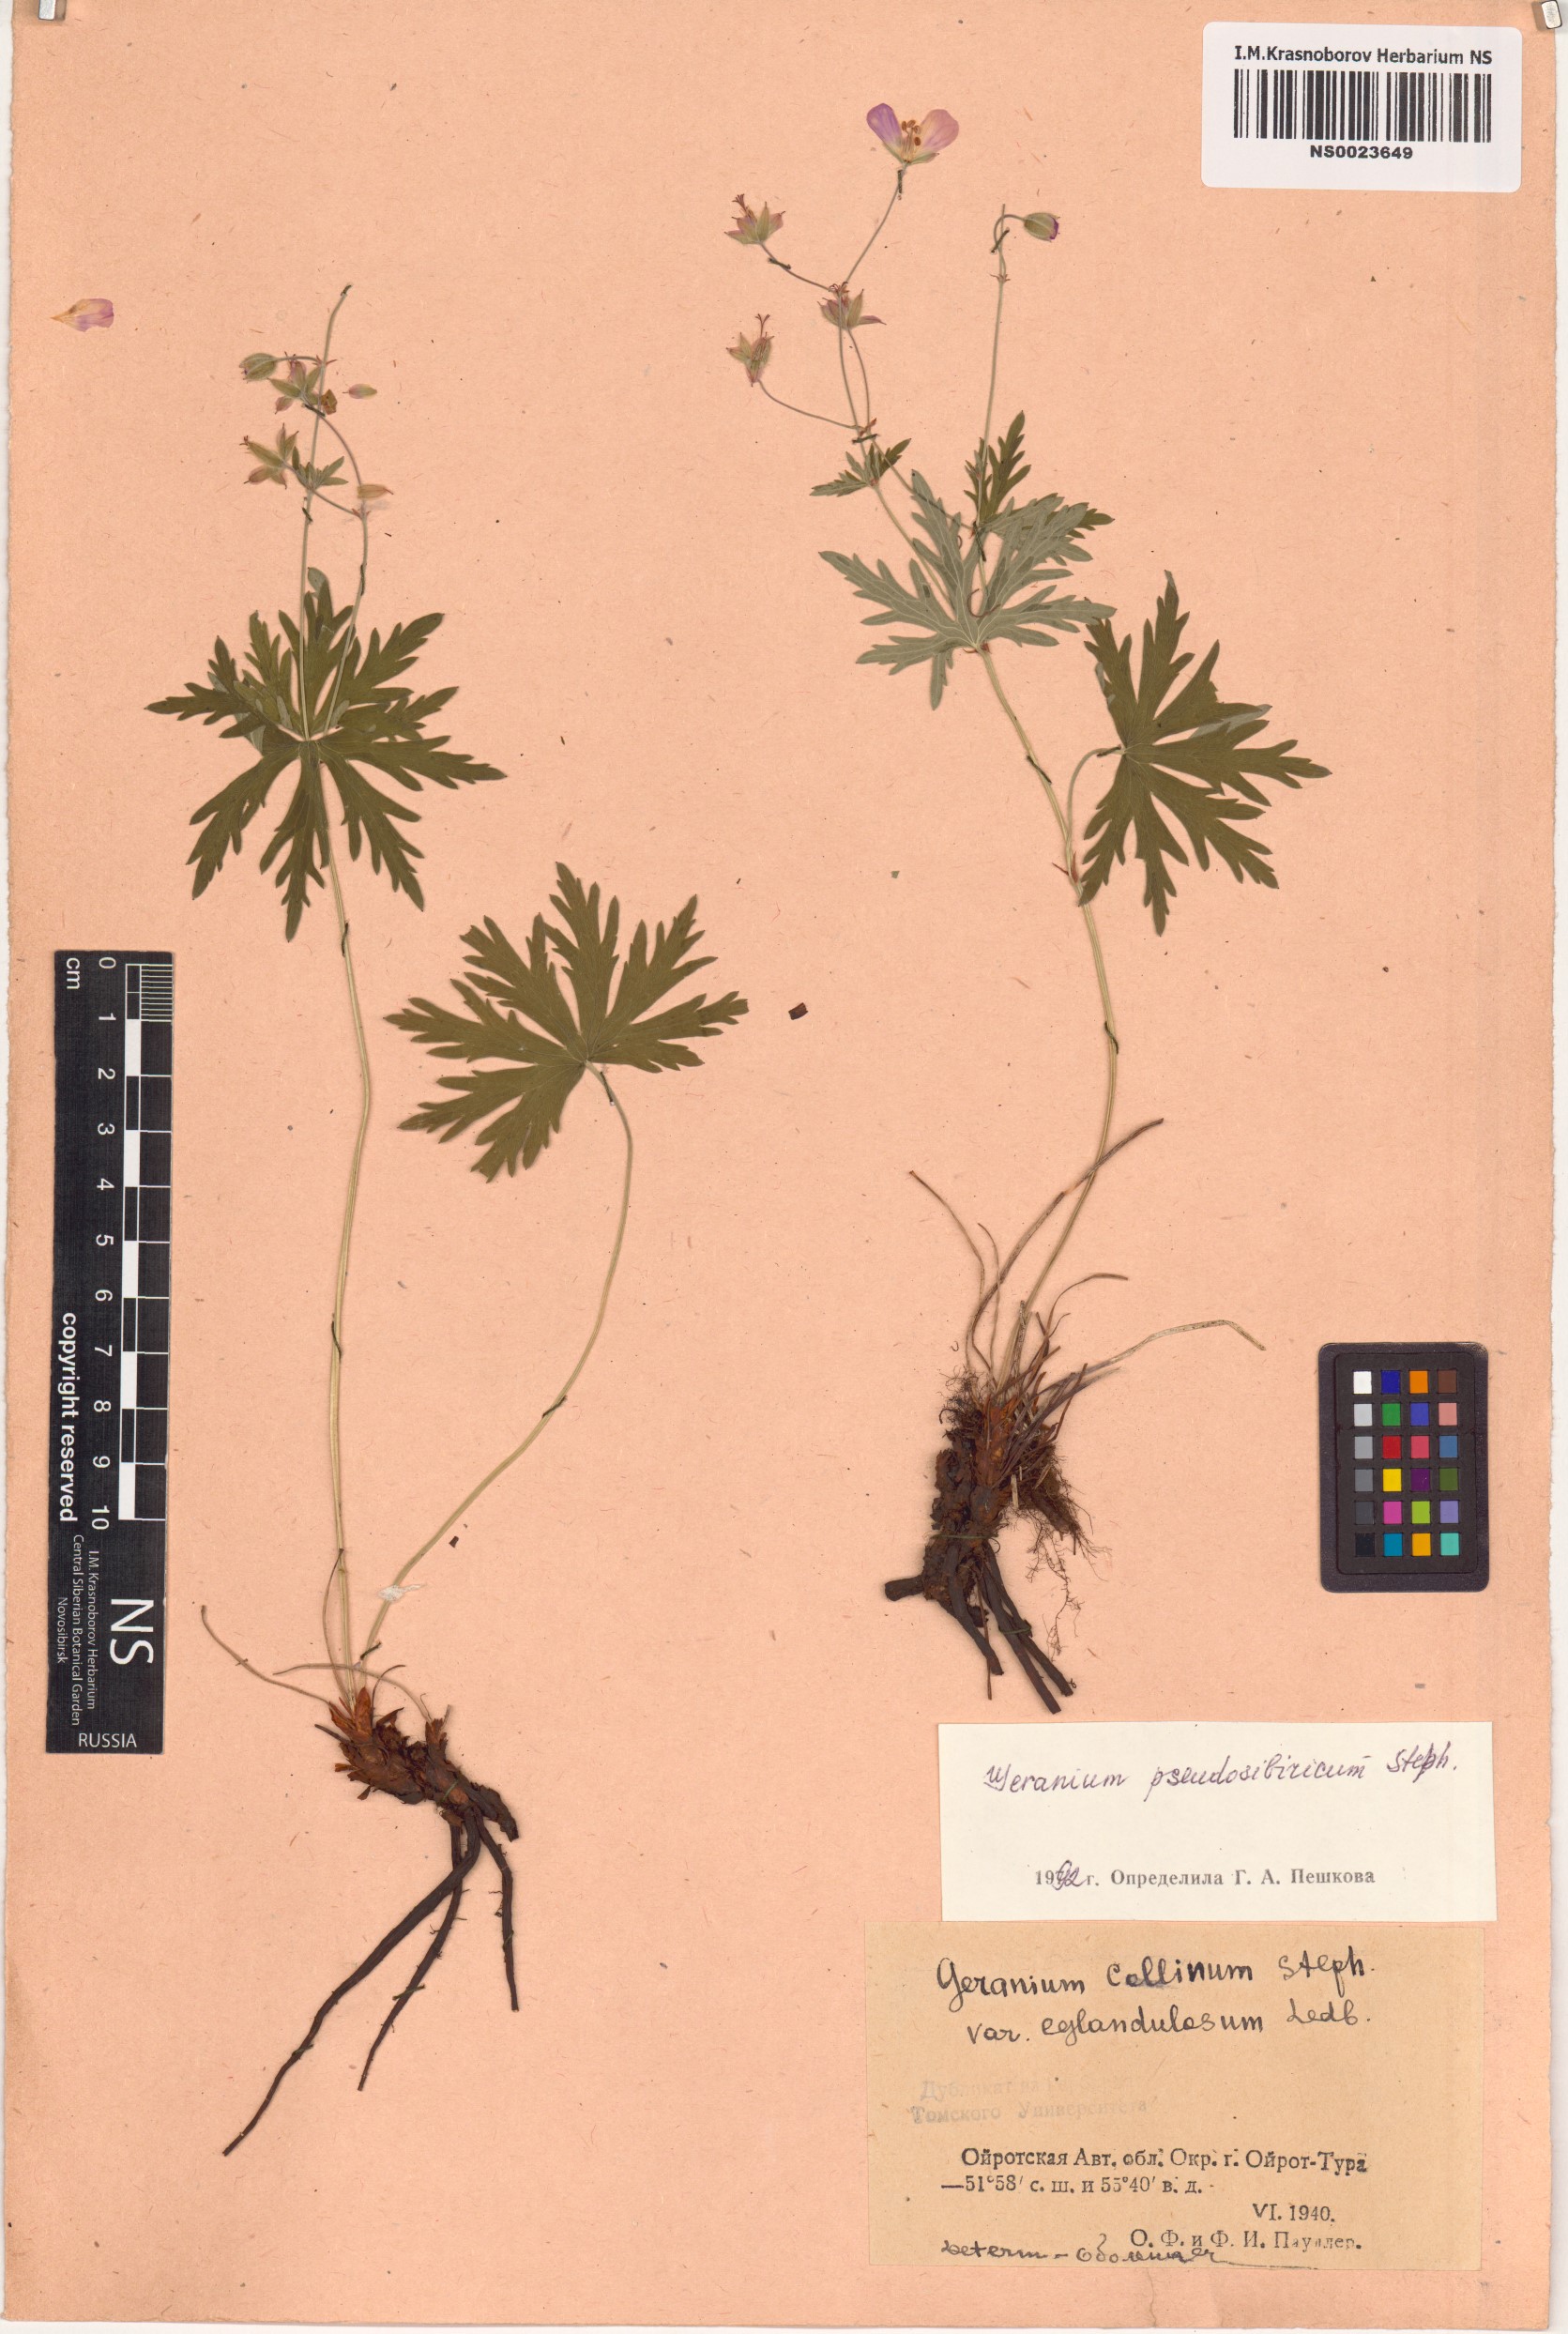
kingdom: Plantae
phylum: Tracheophyta
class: Magnoliopsida
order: Geraniales
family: Geraniaceae
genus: Geranium
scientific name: Geranium pseudosibiricum
